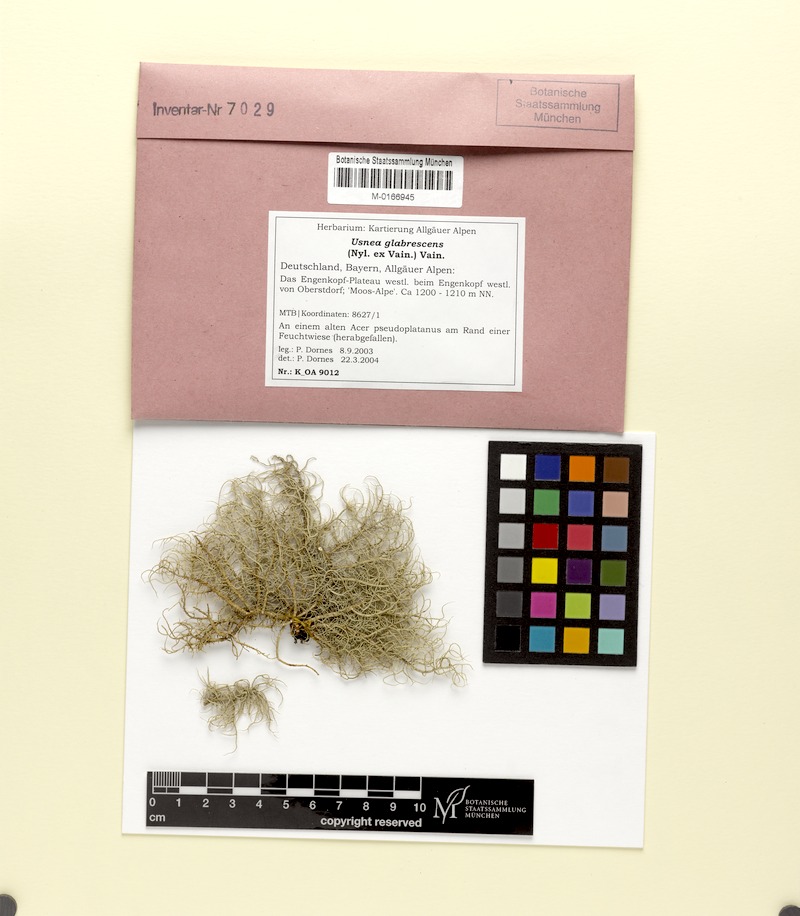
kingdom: Fungi
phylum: Ascomycota
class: Lecanoromycetes
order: Lecanorales
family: Parmeliaceae
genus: Usnea
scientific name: Usnea glabrescens
